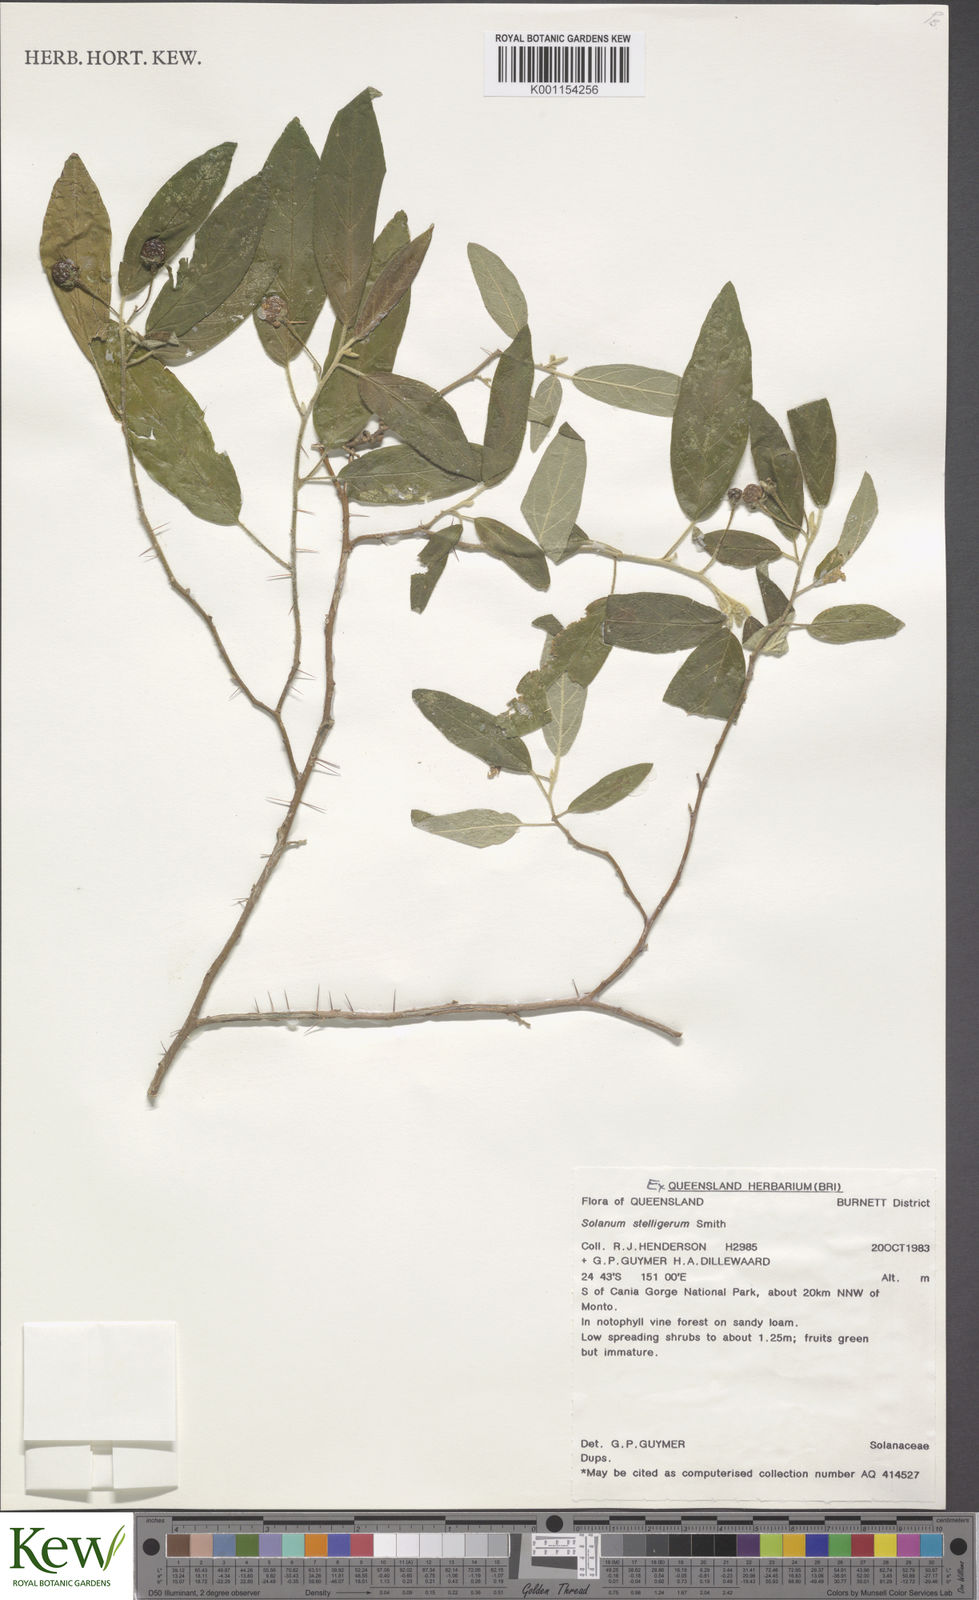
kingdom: Plantae
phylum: Tracheophyta
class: Magnoliopsida
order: Solanales
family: Solanaceae
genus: Solanum
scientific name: Solanum stelligerum
